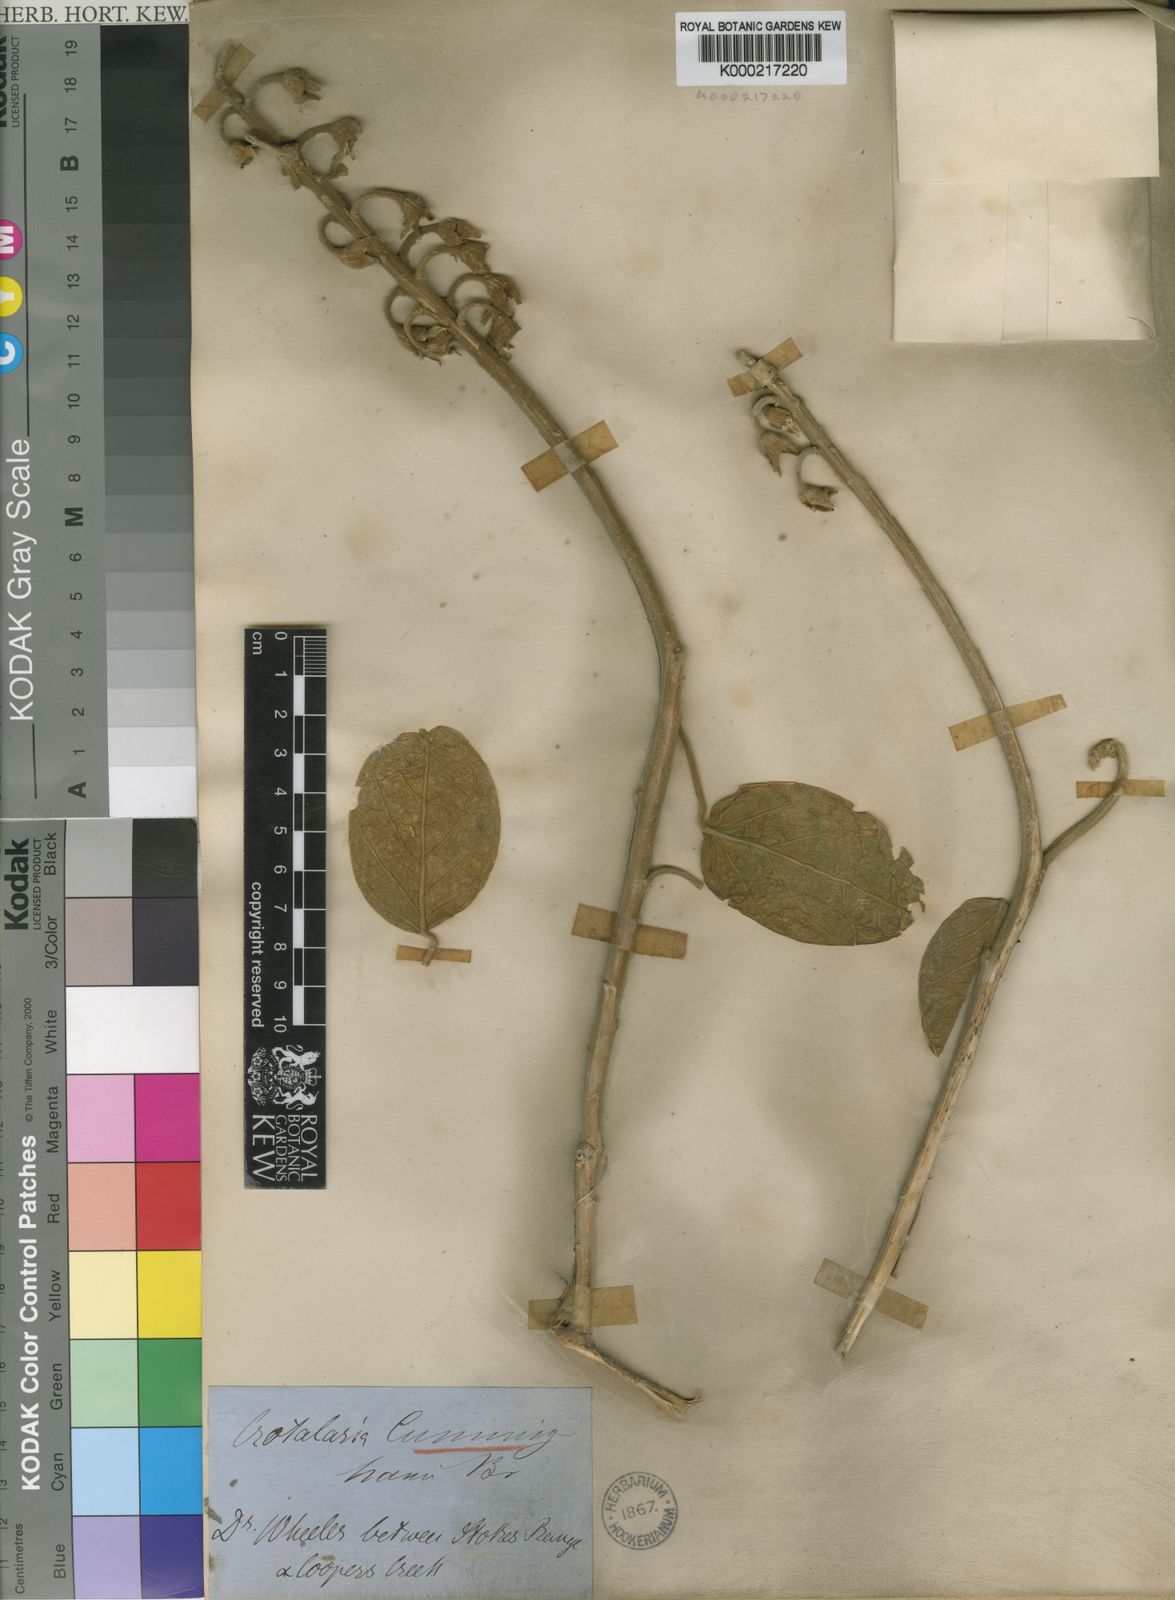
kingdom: Plantae
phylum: Tracheophyta
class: Magnoliopsida
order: Fabales
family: Fabaceae
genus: Crotalaria
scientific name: Crotalaria cunninghamii
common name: Birdflower rattlepod
